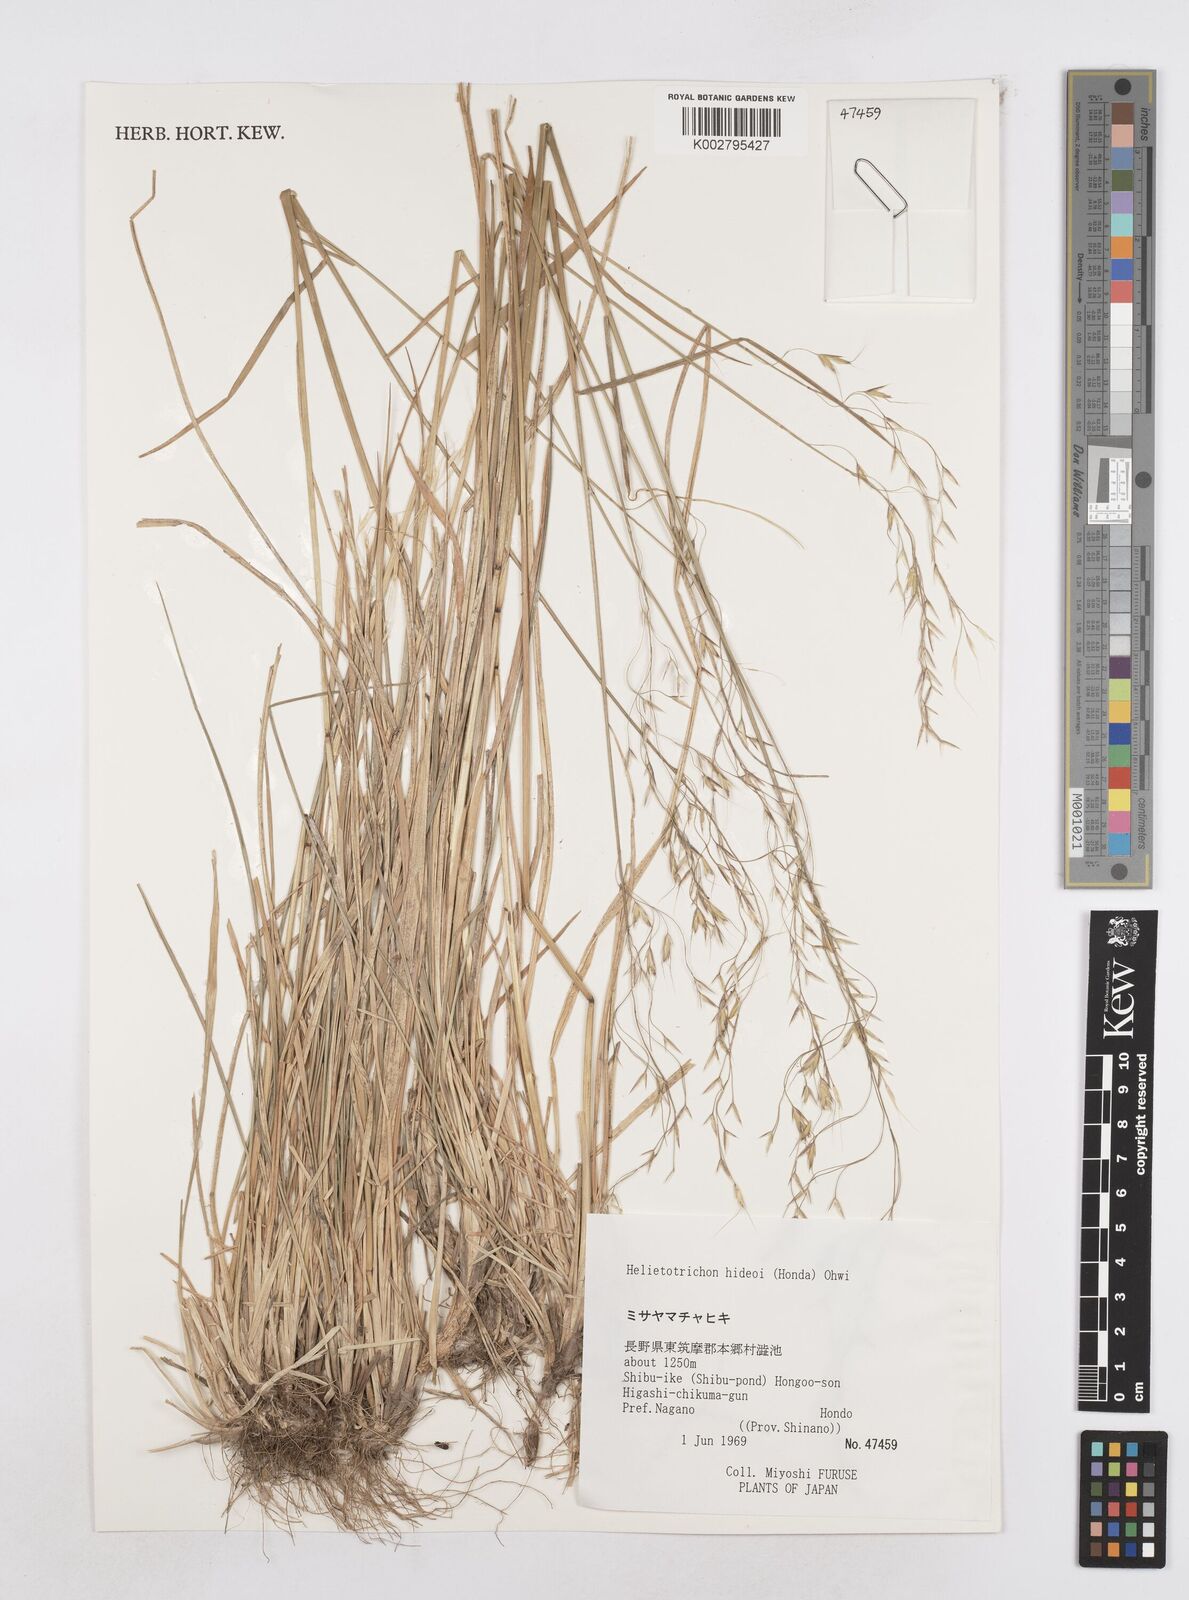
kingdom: Plantae
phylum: Tracheophyta
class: Liliopsida
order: Poales
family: Poaceae
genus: Helictotrichon
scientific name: Helictotrichon hideoi
